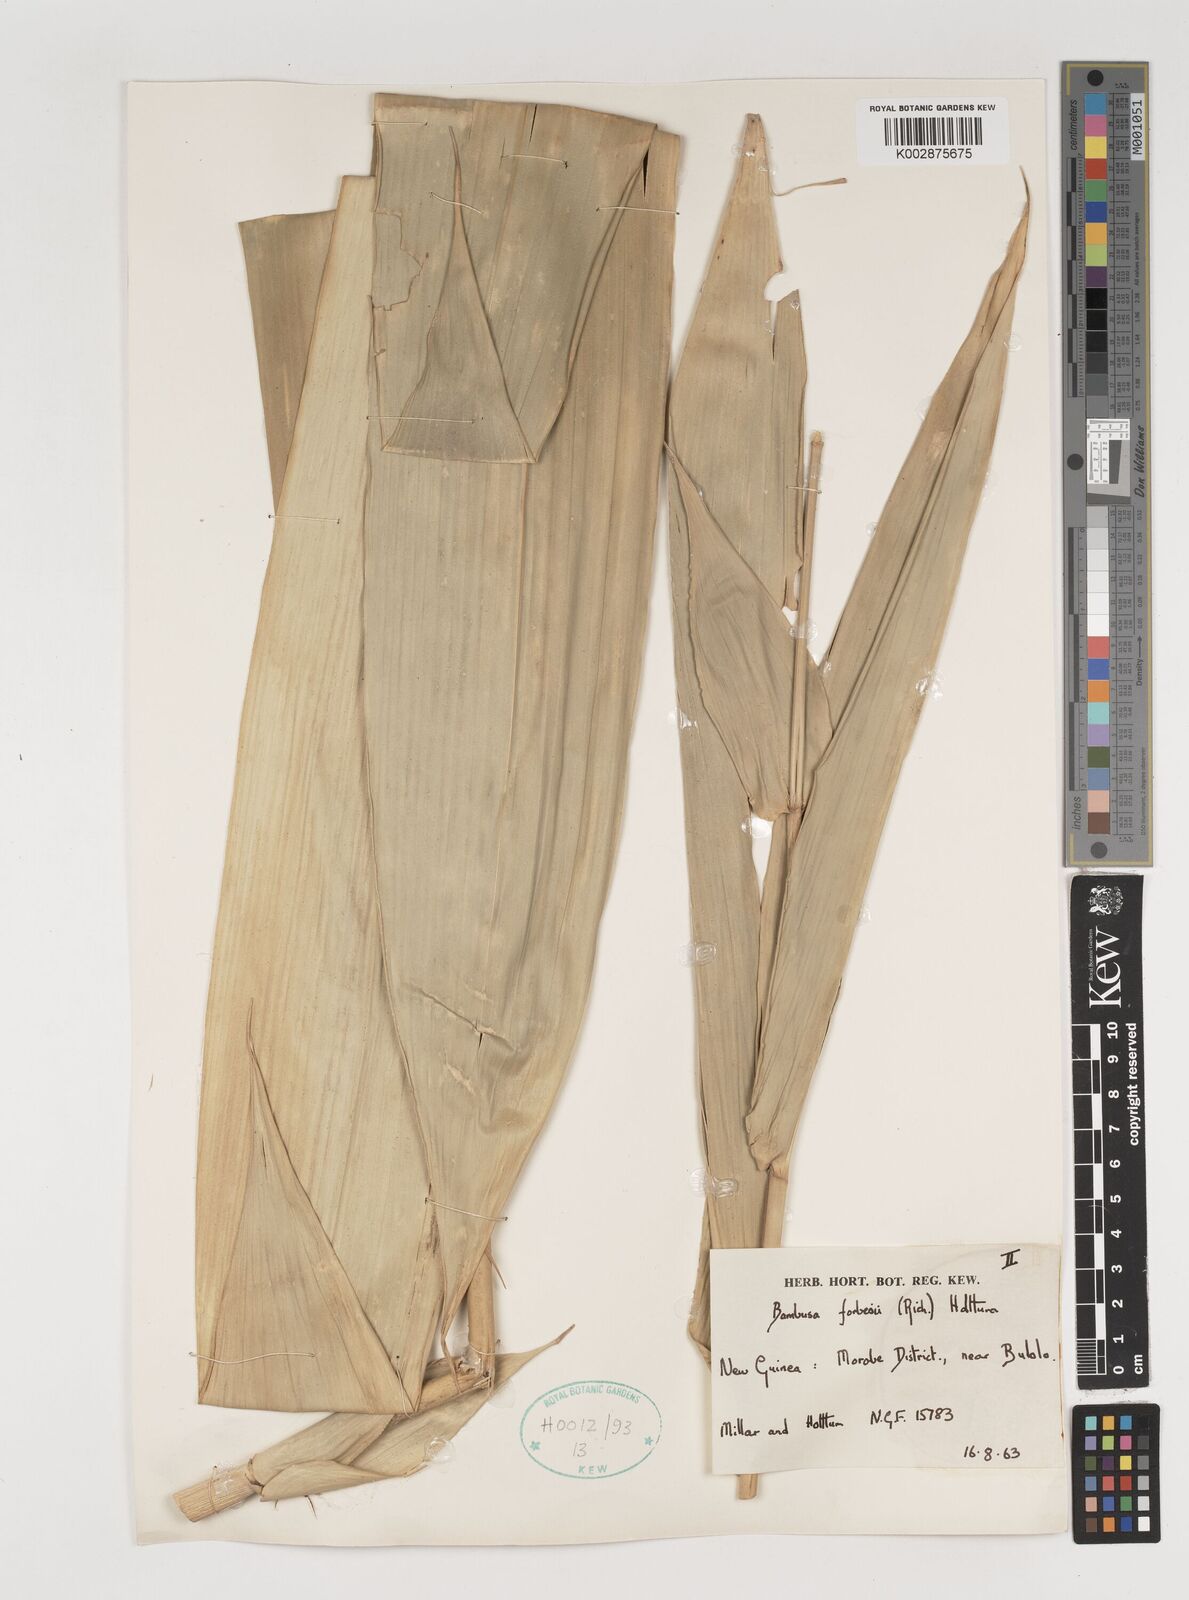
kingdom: Plantae
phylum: Tracheophyta
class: Liliopsida
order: Poales
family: Poaceae
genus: Neololeba
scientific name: Neololeba
